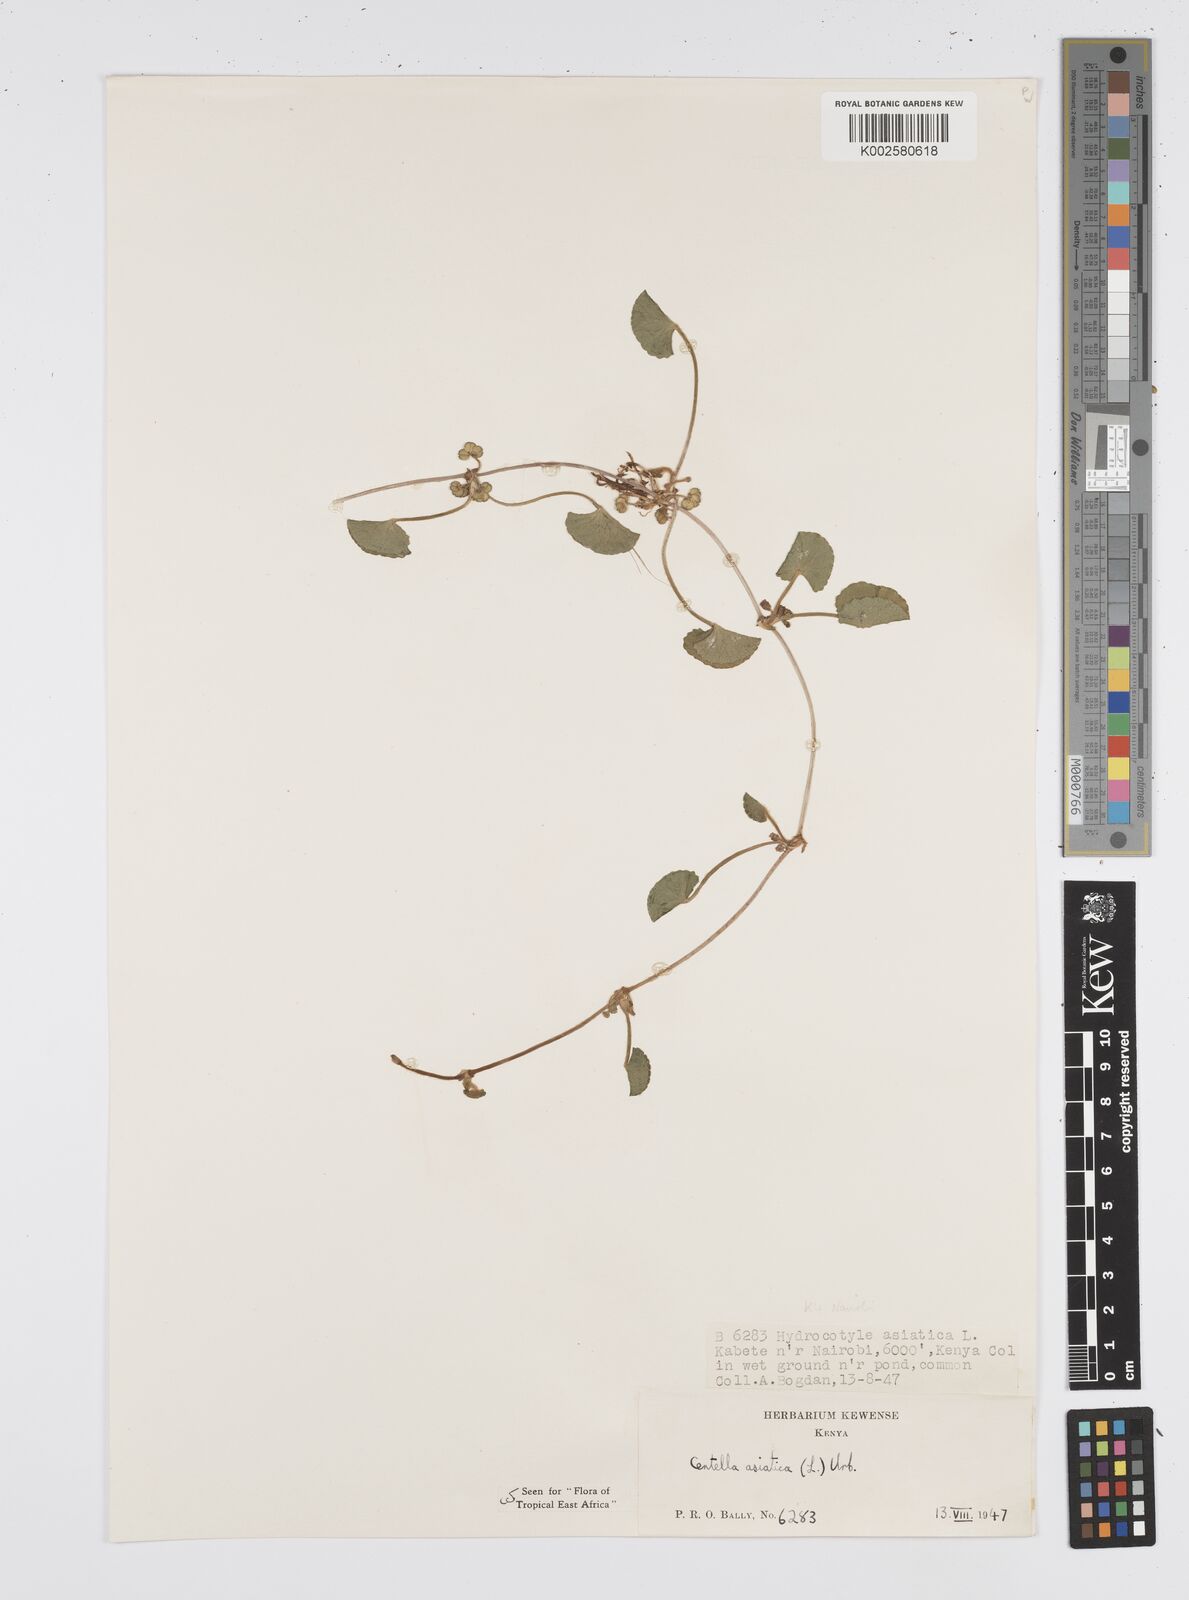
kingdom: Plantae
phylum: Tracheophyta
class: Magnoliopsida
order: Apiales
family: Apiaceae
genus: Centella
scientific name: Centella asiatica
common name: Spadeleaf
